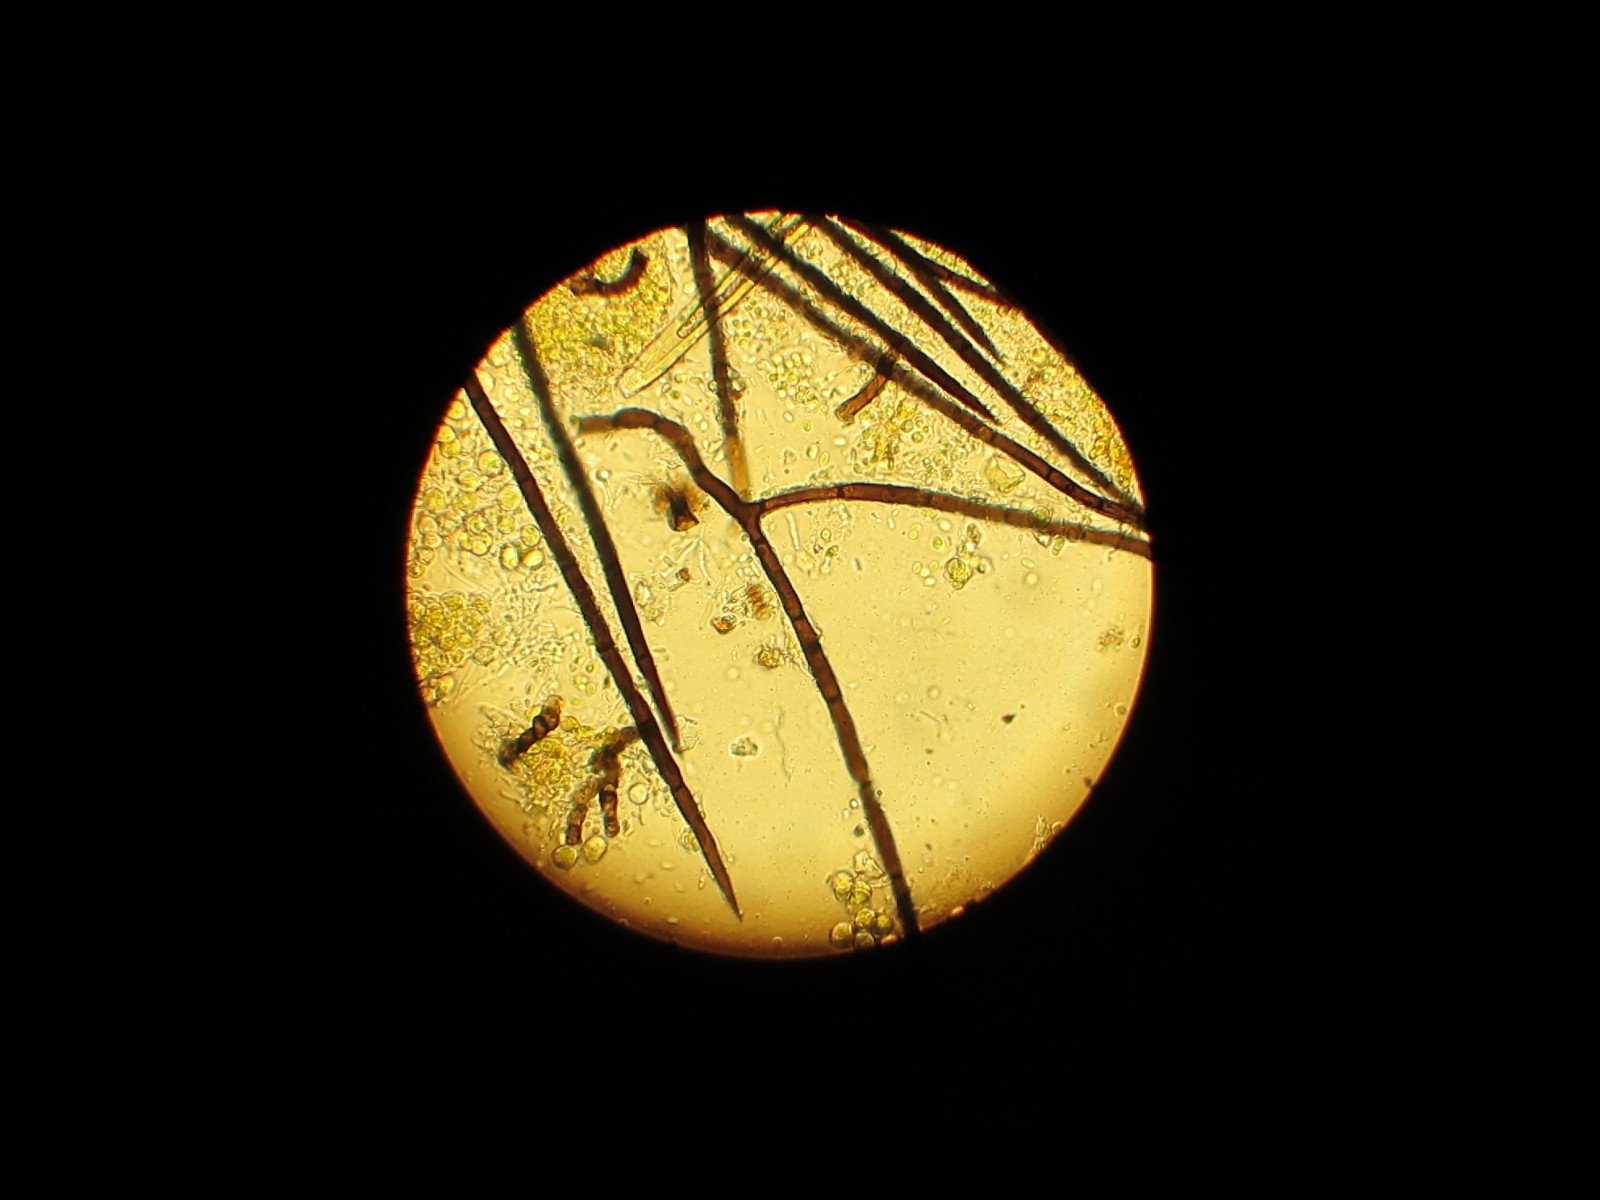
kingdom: Fungi
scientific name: Fungi
